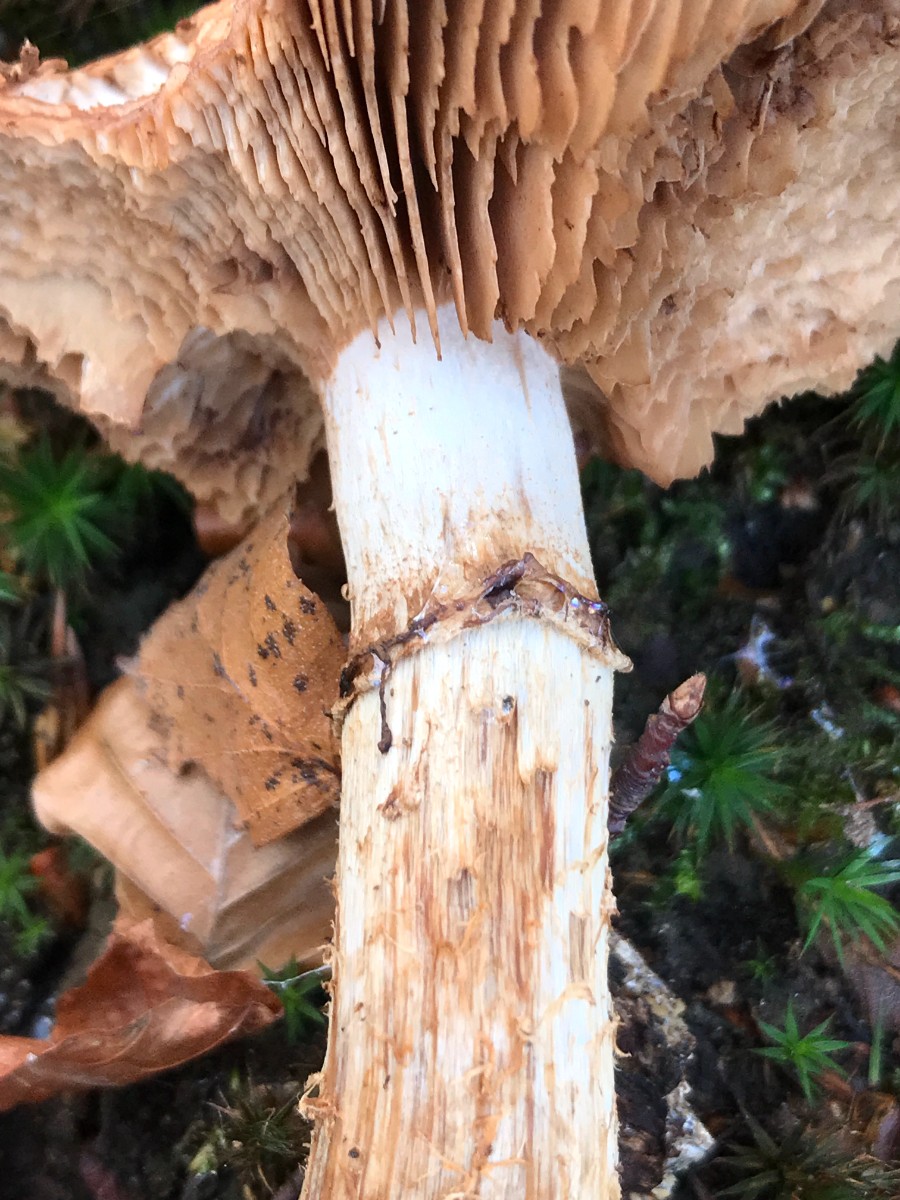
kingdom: Fungi
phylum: Basidiomycota
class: Agaricomycetes
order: Agaricales
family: Hymenogastraceae
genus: Hebeloma
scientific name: Hebeloma radicosum
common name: pælerods-tåreblad
